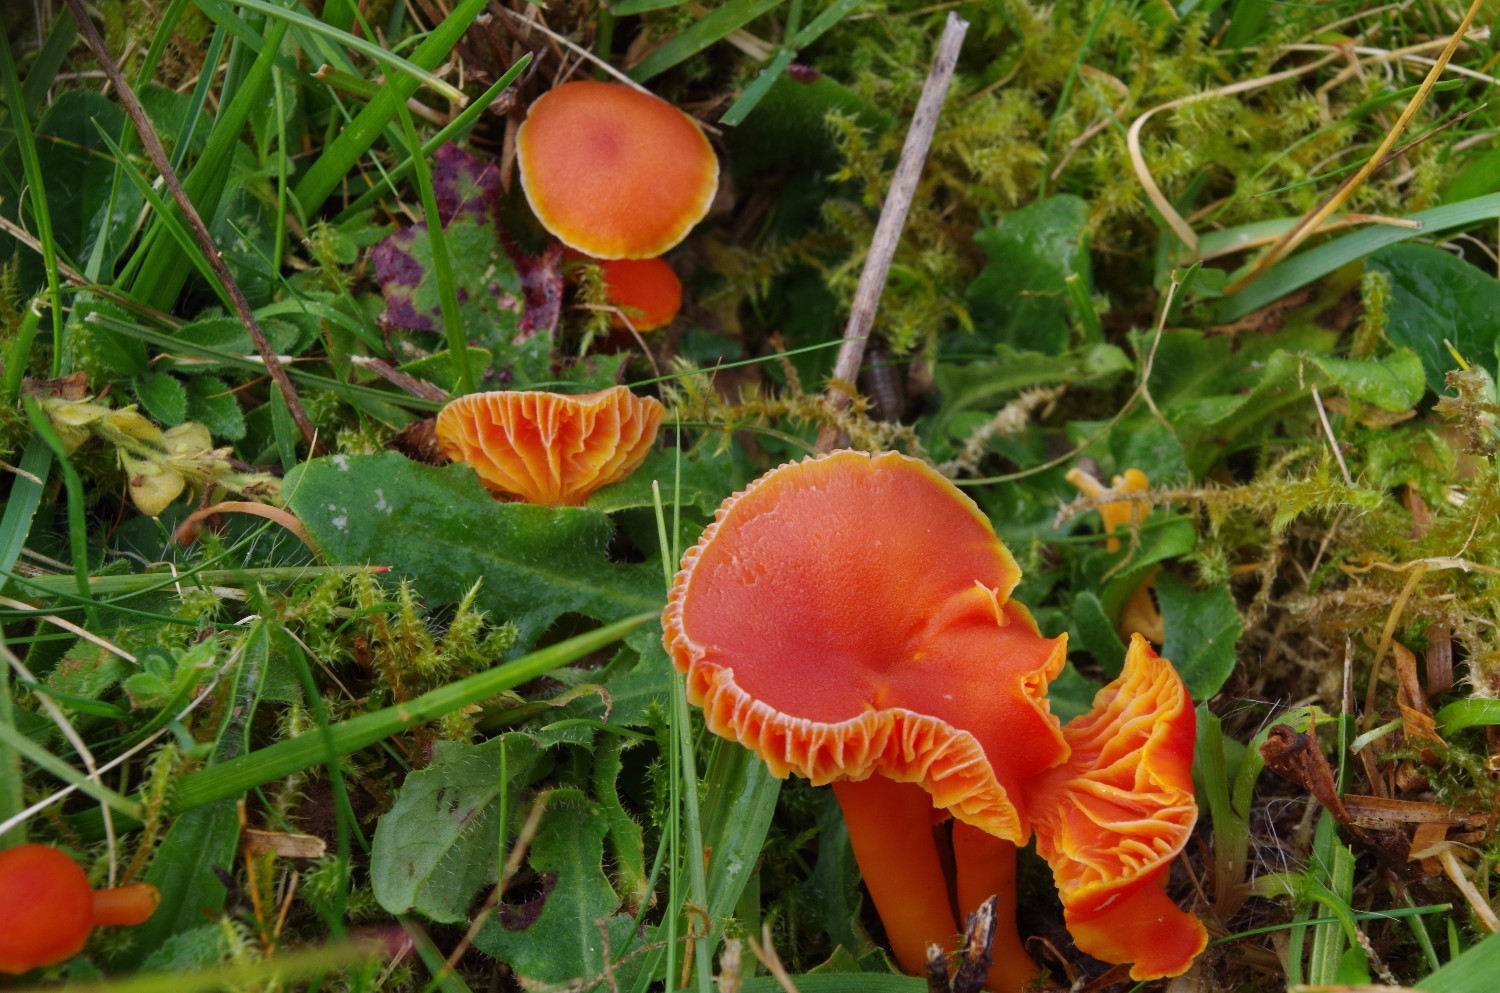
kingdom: Fungi
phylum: Basidiomycota
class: Agaricomycetes
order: Agaricales
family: Hygrophoraceae
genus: Hygrocybe
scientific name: Hygrocybe miniata
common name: mønje-vokshat
